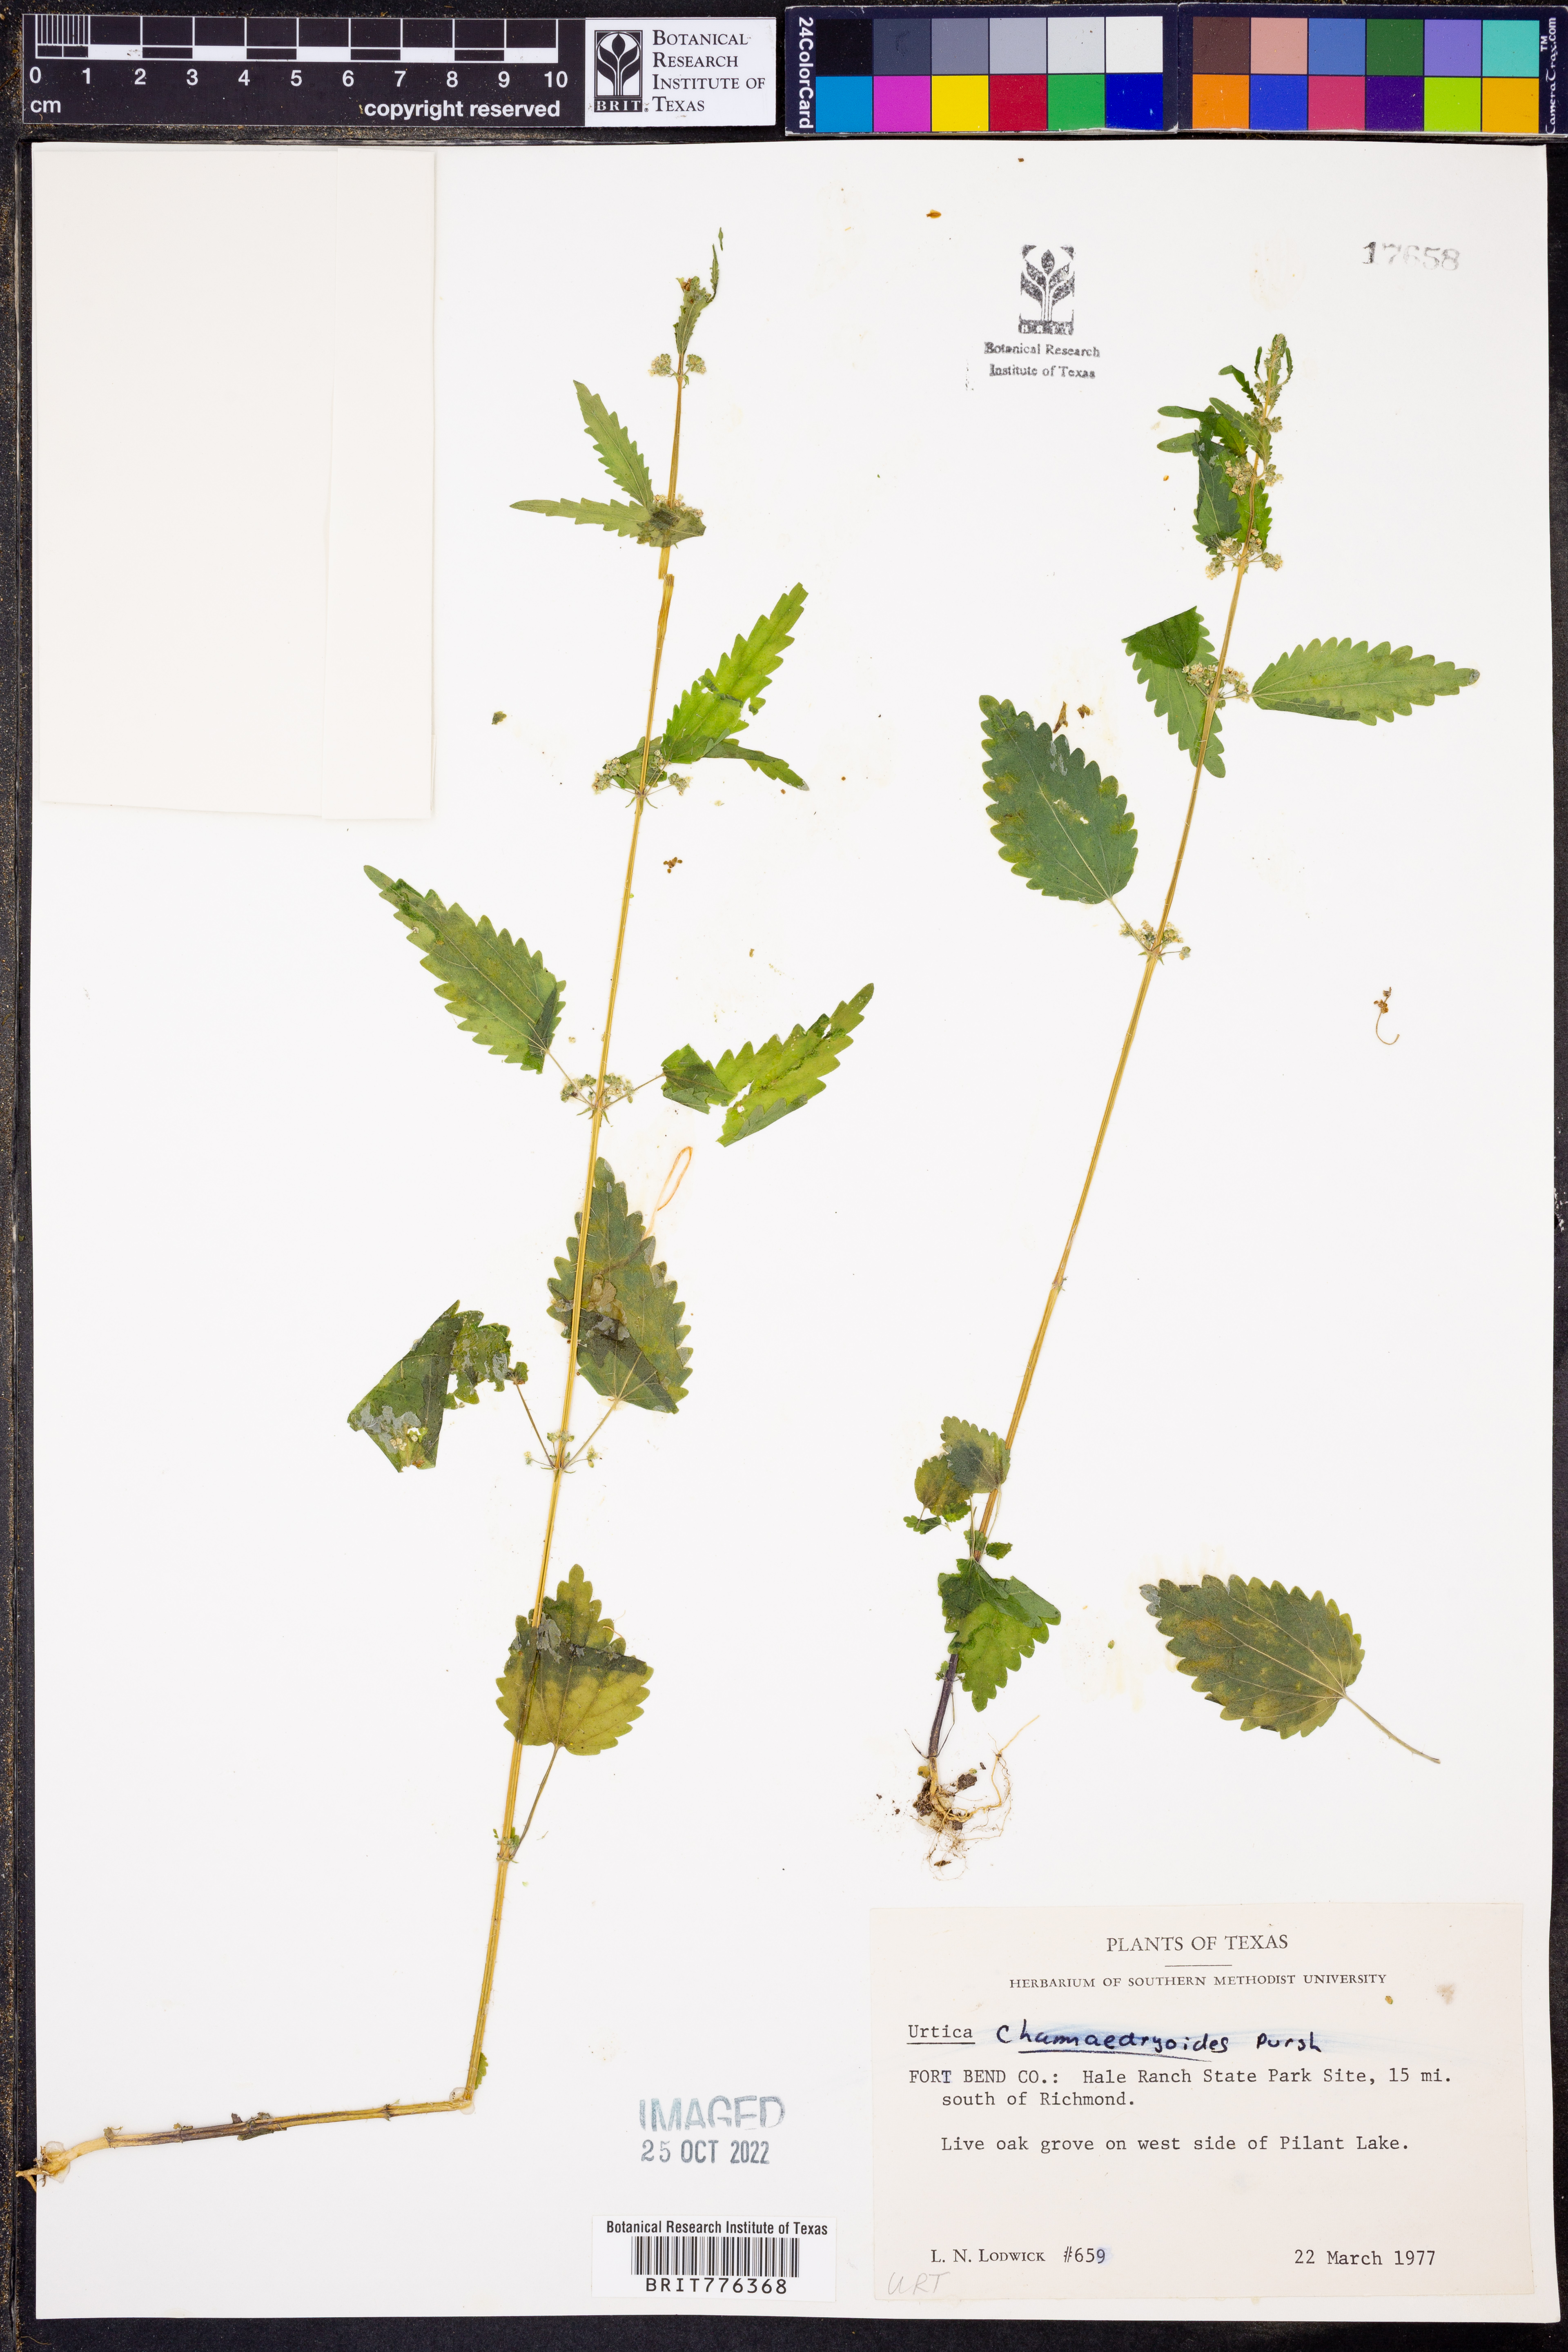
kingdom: Plantae
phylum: Tracheophyta
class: Magnoliopsida
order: Rosales
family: Urticaceae
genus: Urtica
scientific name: Urtica chamaedryoides
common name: Heart-leaf nettle
